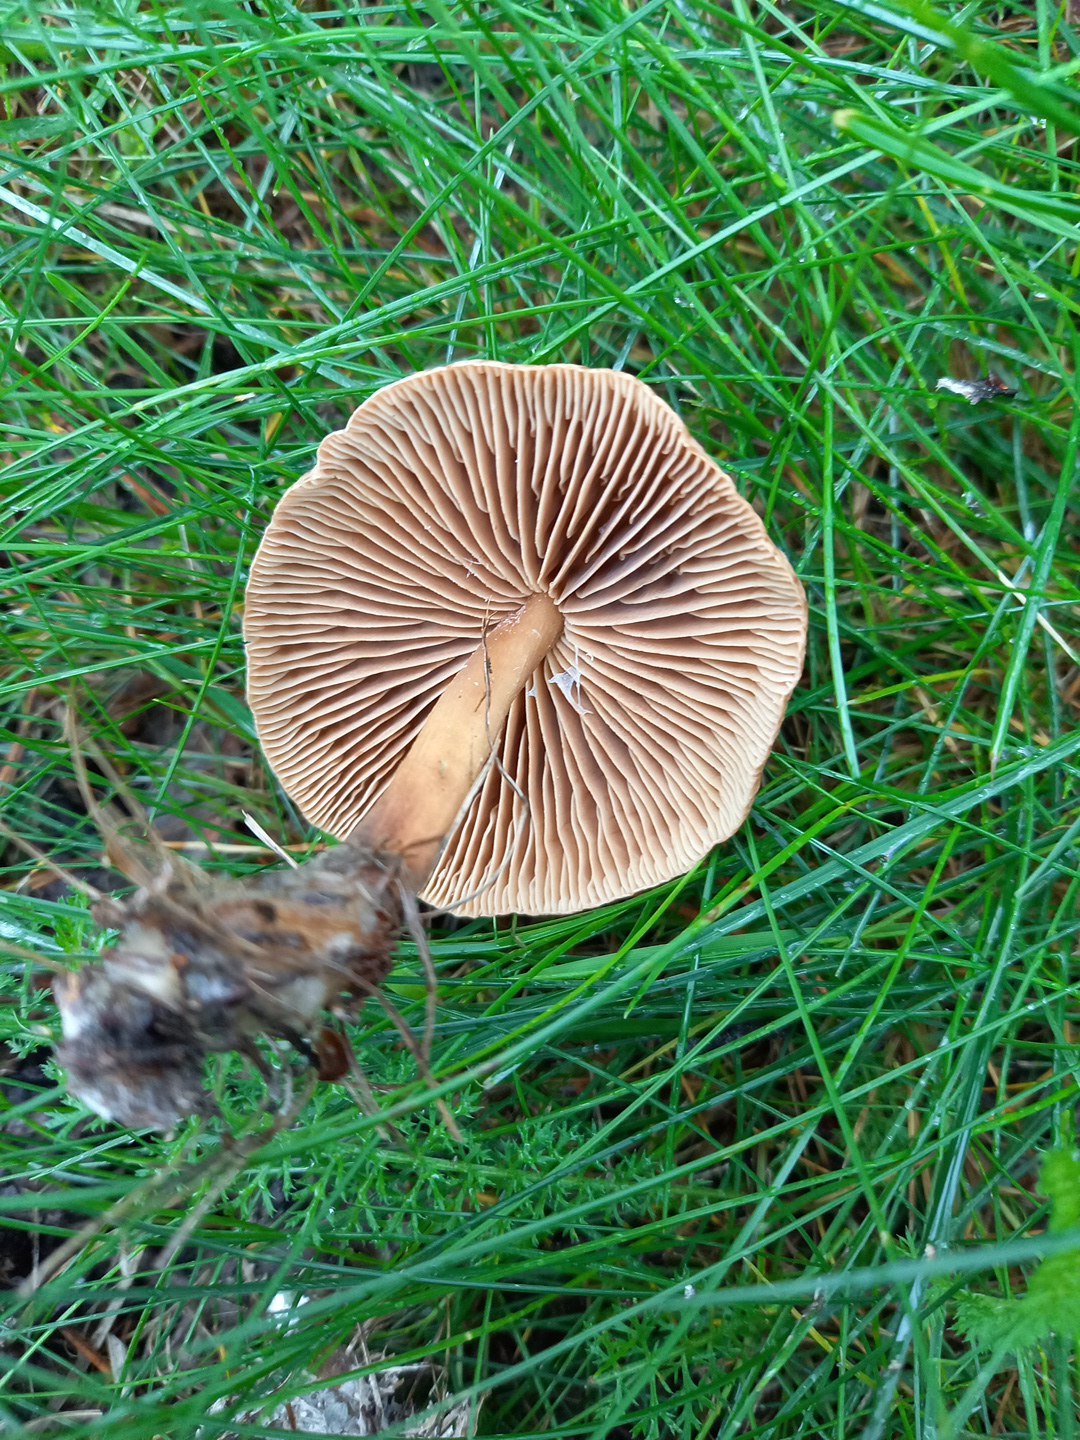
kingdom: Fungi
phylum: Basidiomycota
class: Agaricomycetes
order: Agaricales
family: Omphalotaceae
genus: Collybiopsis
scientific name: Collybiopsis peronata
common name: bestøvlet fladhat
